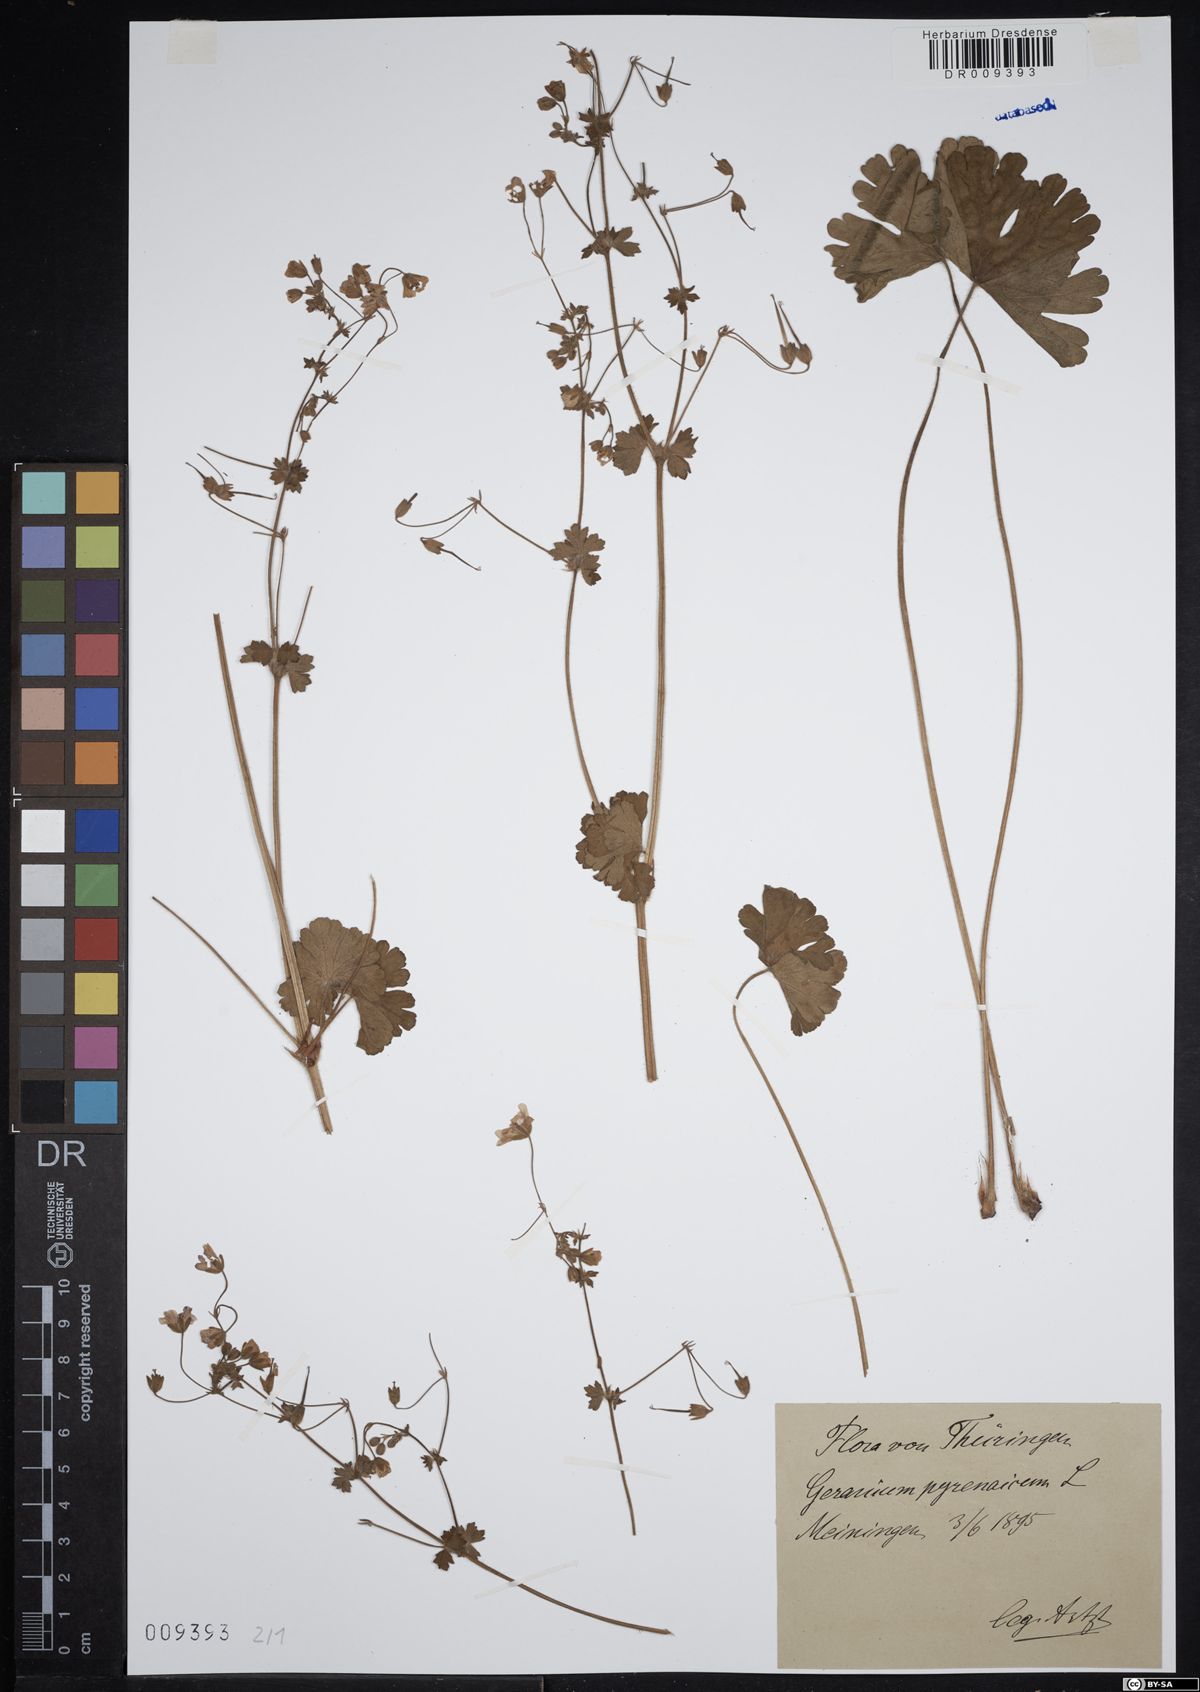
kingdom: Plantae
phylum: Tracheophyta
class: Magnoliopsida
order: Geraniales
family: Geraniaceae
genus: Geranium
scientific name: Geranium pyrenaicum
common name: Hedgerow crane's-bill
